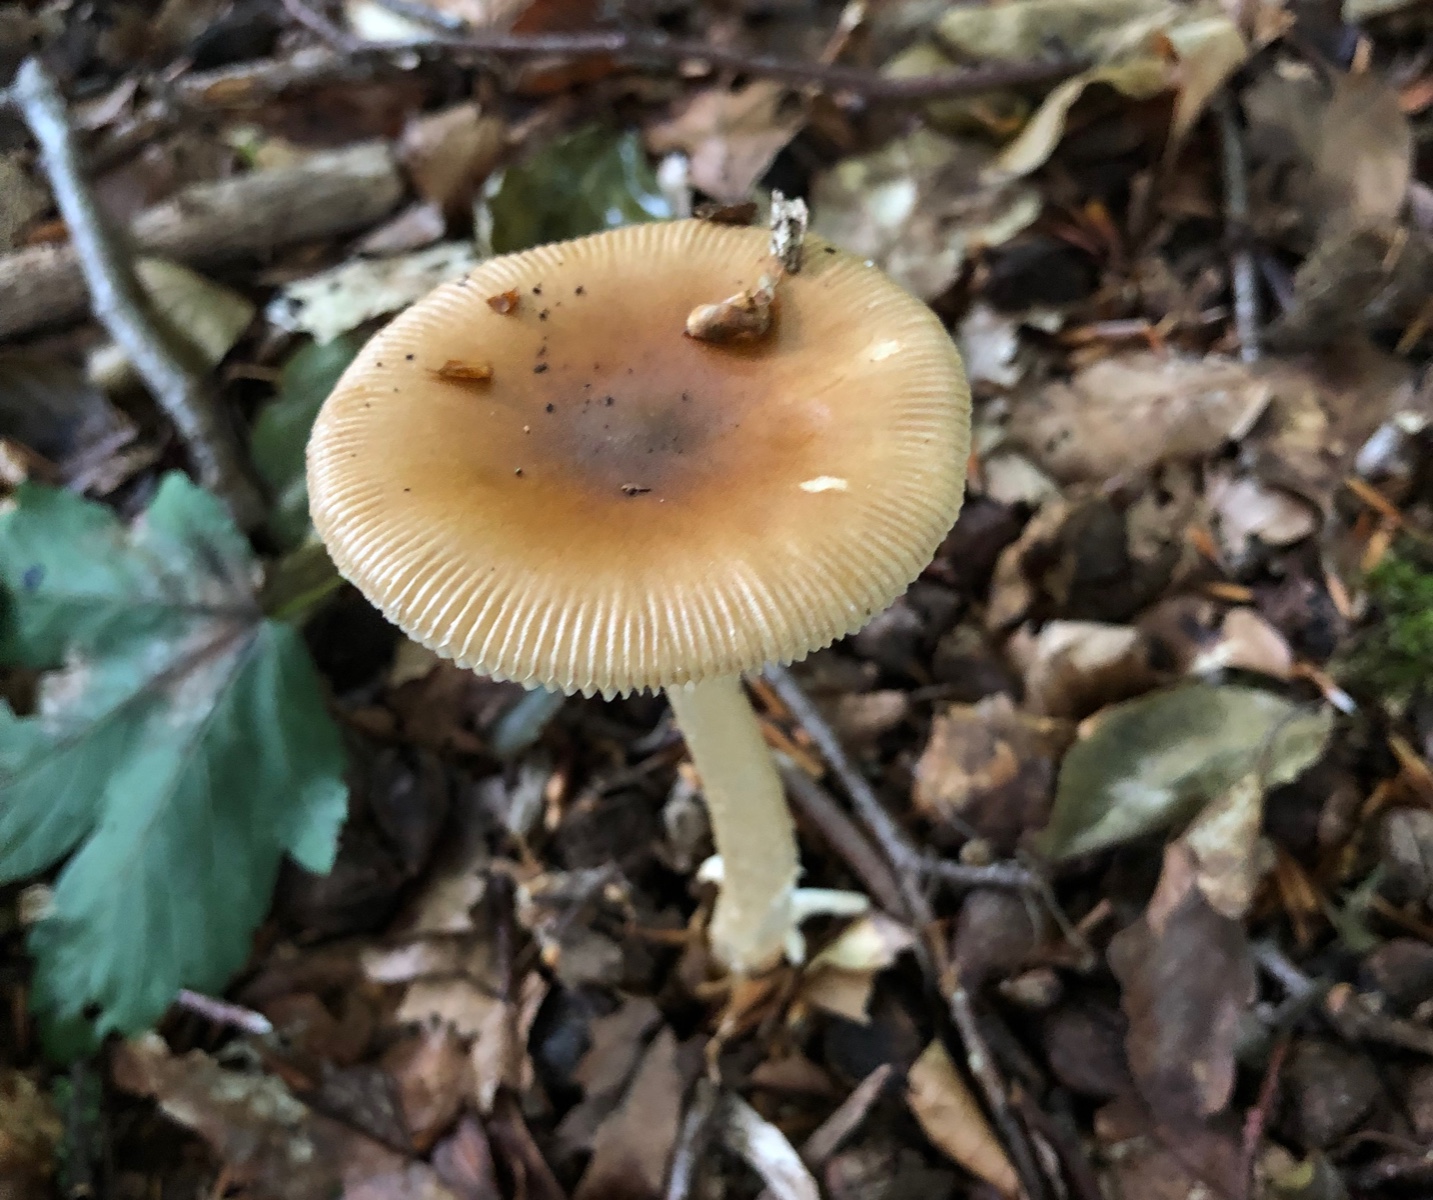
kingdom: Fungi
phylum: Basidiomycota
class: Agaricomycetes
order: Agaricales
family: Amanitaceae
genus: Amanita
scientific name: Amanita fulva
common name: brun kam-fluesvamp
